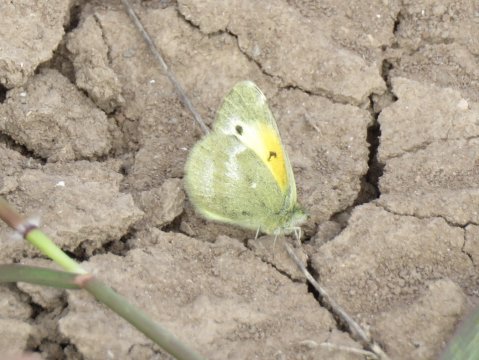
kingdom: Animalia
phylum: Arthropoda
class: Insecta
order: Lepidoptera
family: Pieridae
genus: Nathalis
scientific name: Nathalis iole
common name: Dainty Sulphur
